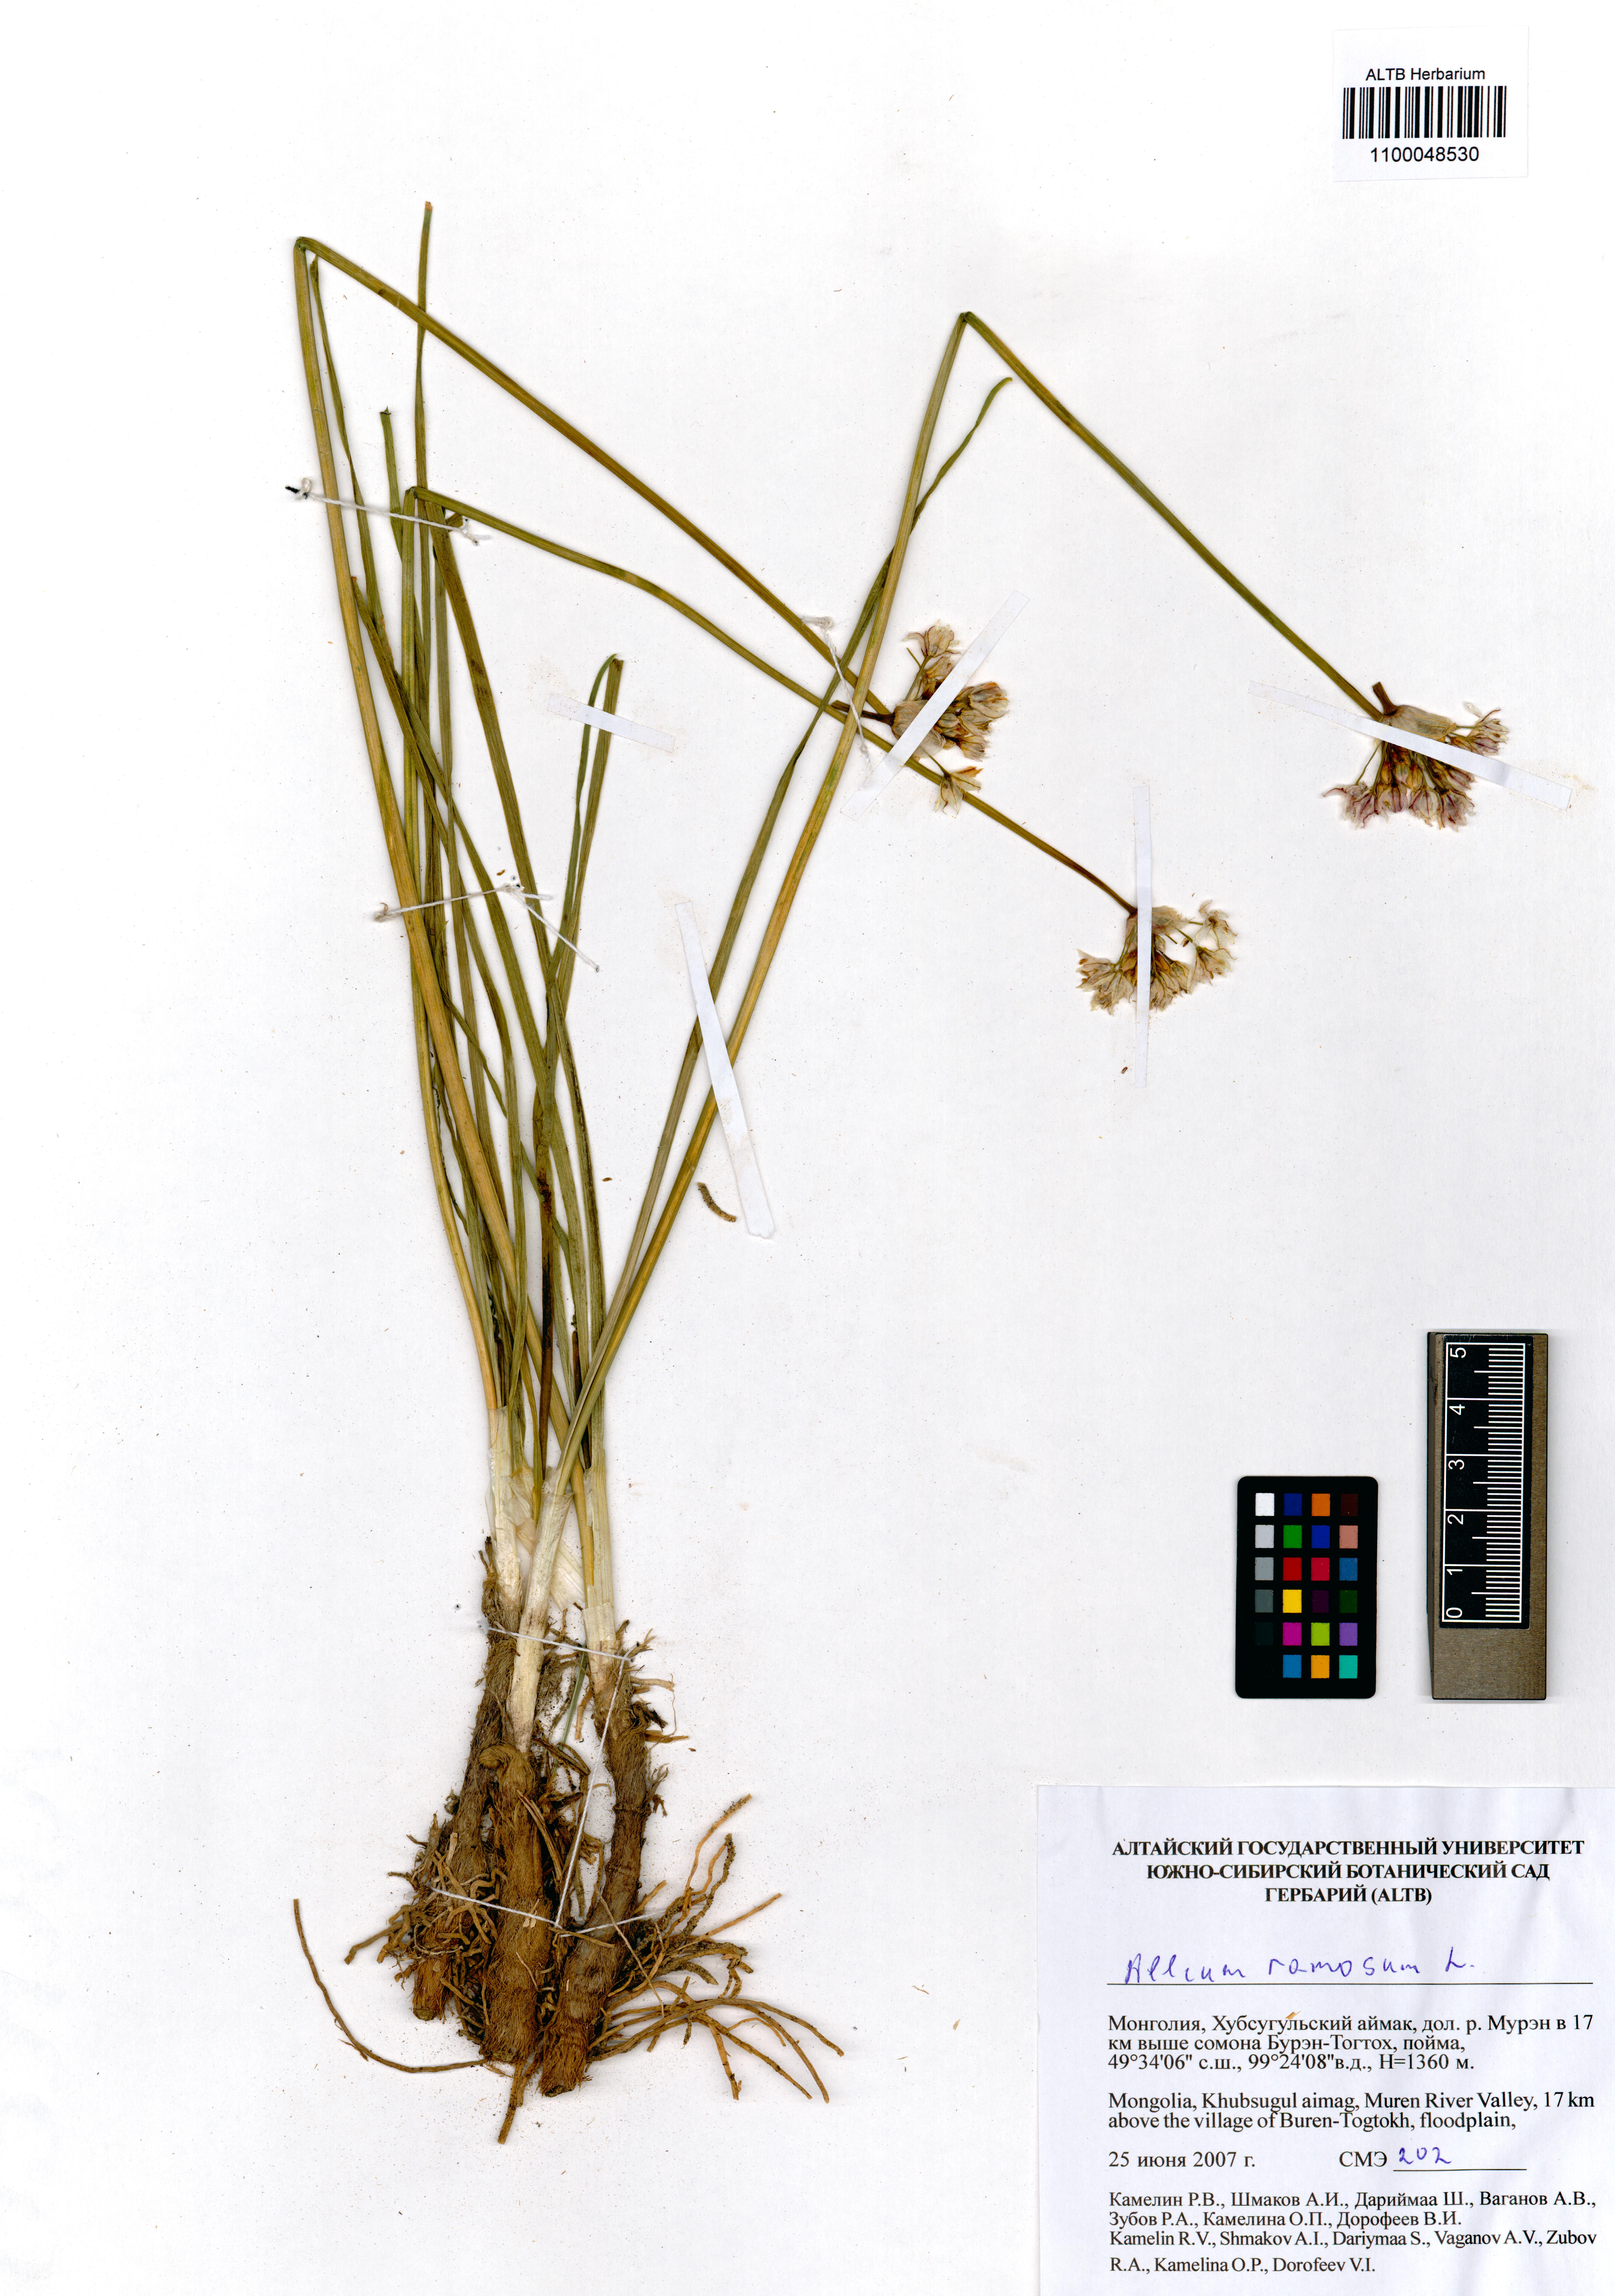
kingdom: Plantae
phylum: Tracheophyta
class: Liliopsida
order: Asparagales
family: Amaryllidaceae
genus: Allium
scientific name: Allium ramosum
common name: Fragrant garlic
